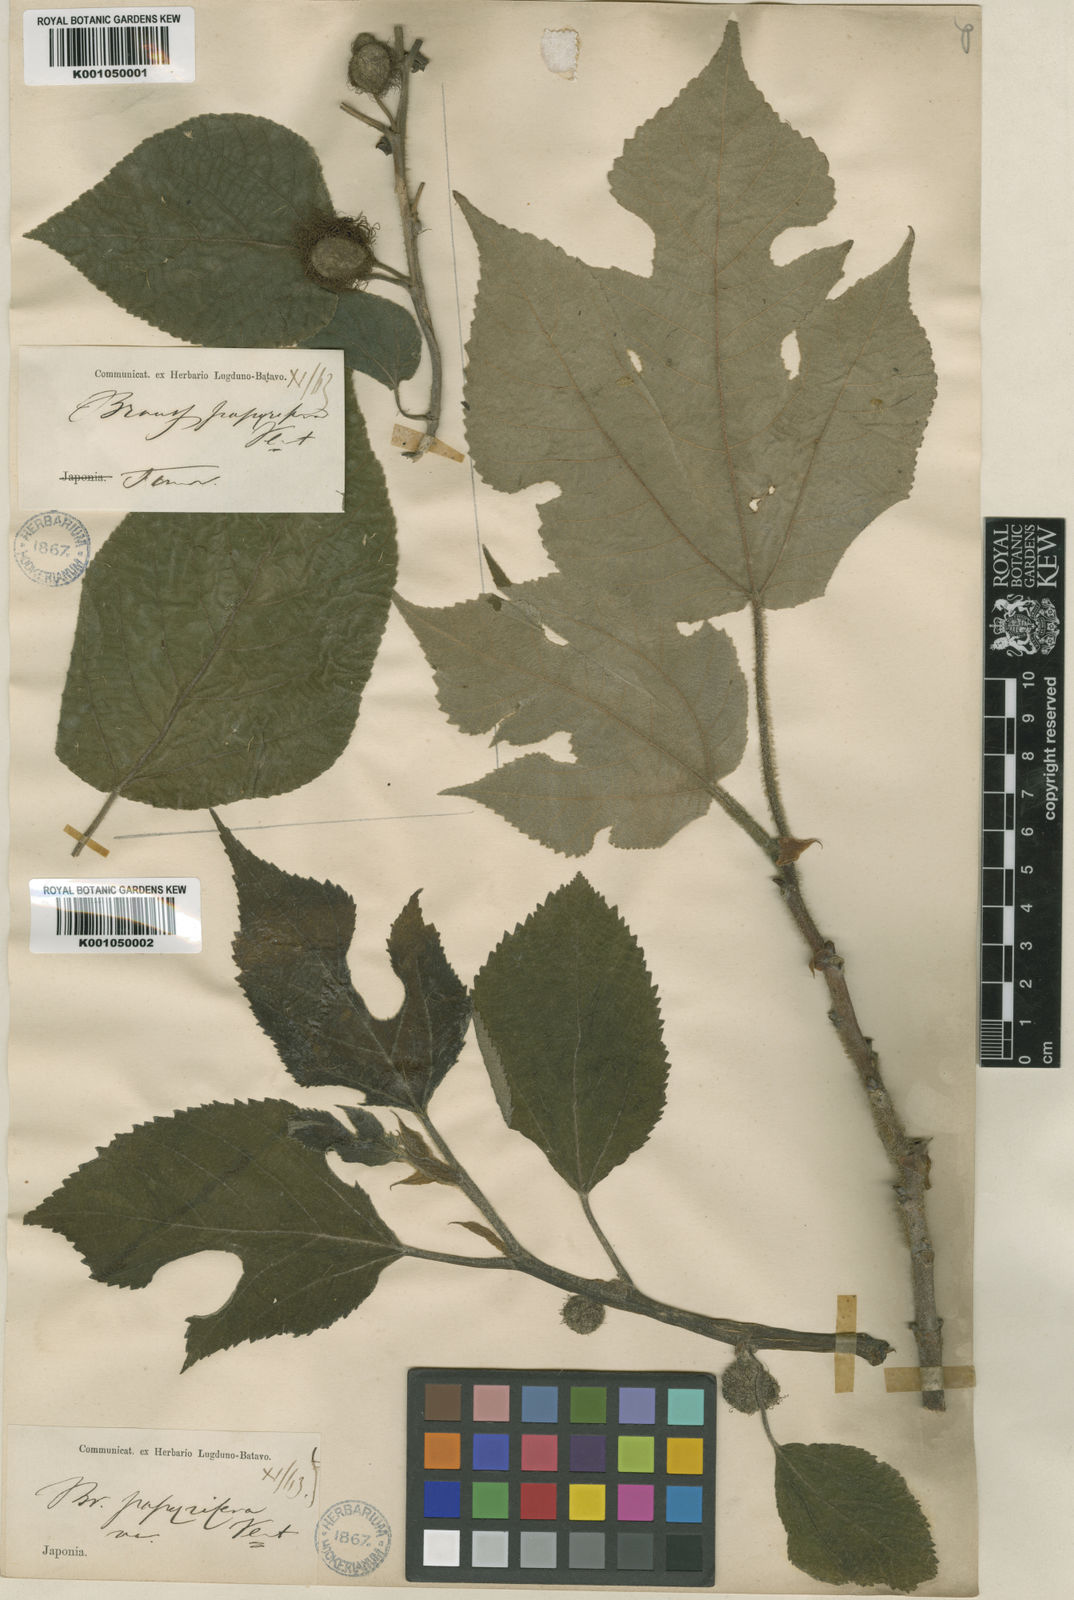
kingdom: Plantae
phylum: Tracheophyta
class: Magnoliopsida
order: Rosales
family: Moraceae
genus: Broussonetia
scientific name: Broussonetia papyrifera
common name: Paper mulberry
